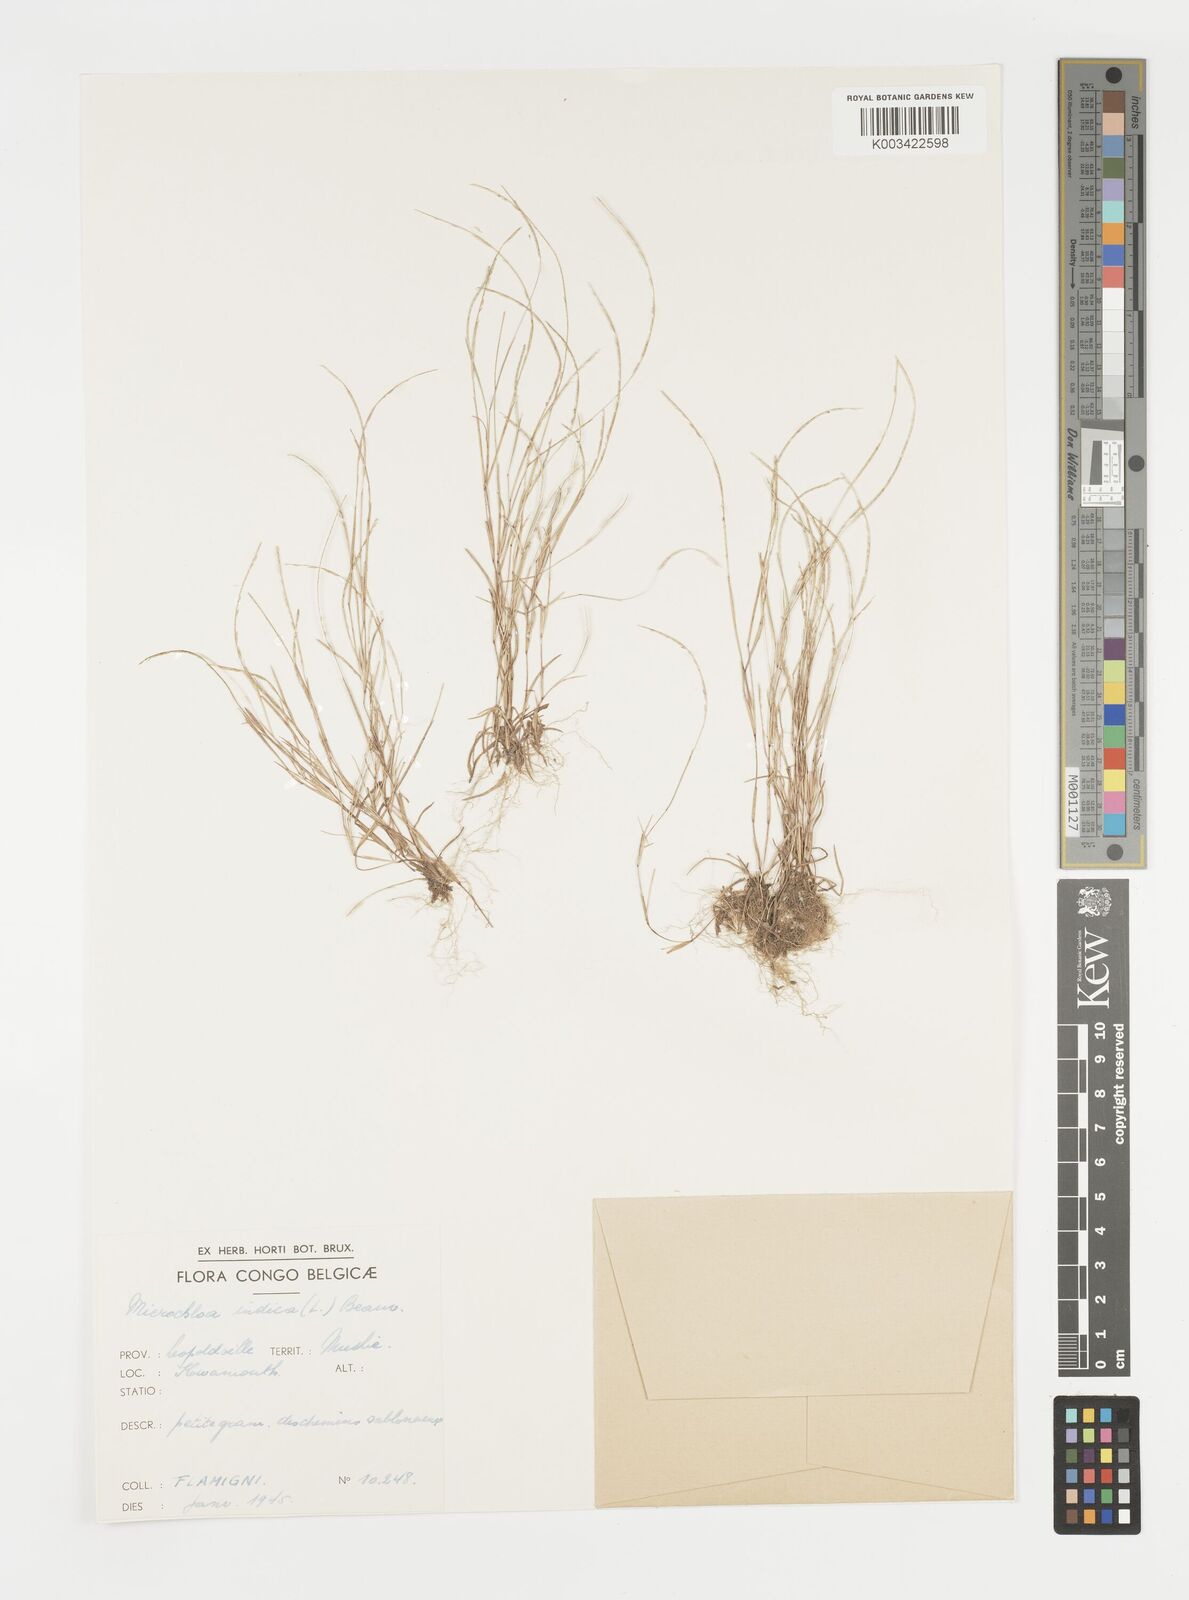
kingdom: Plantae
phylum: Tracheophyta
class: Liliopsida
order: Poales
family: Poaceae
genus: Microchloa
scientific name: Microchloa indica
